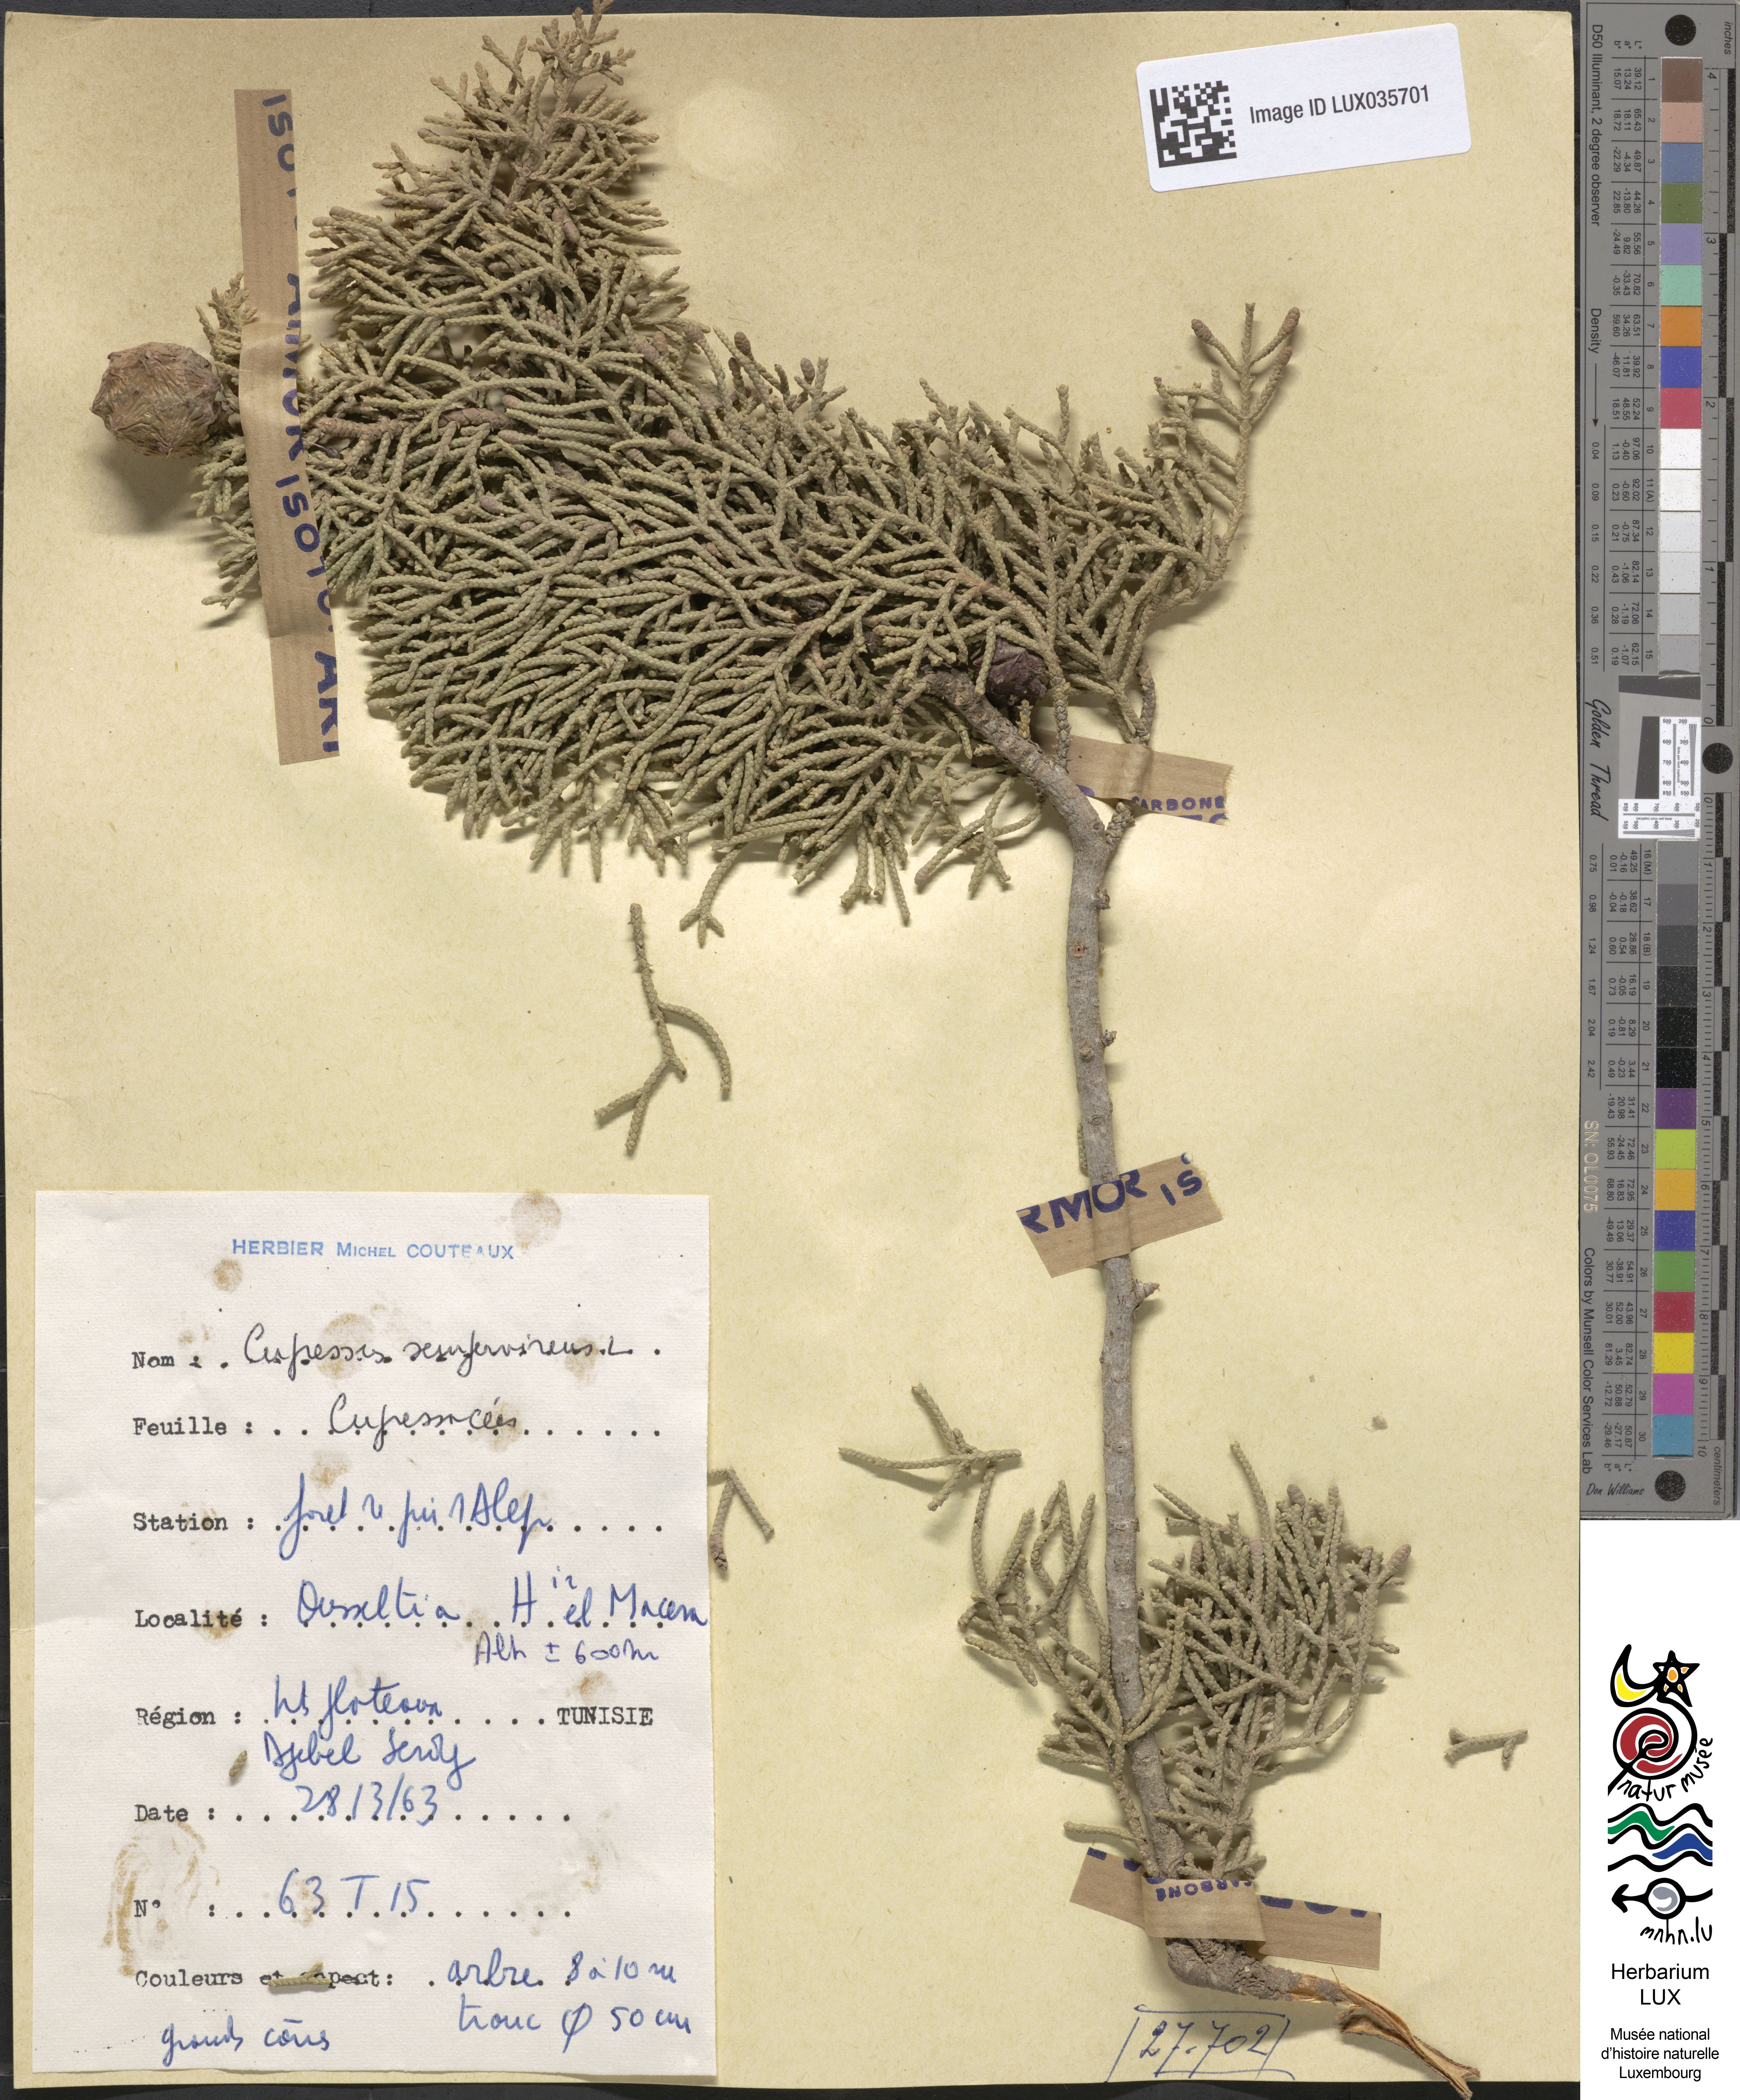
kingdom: Plantae
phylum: Tracheophyta
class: Pinopsida
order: Pinales
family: Cupressaceae
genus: Cupressus
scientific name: Cupressus sempervirens
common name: Italian cypress
